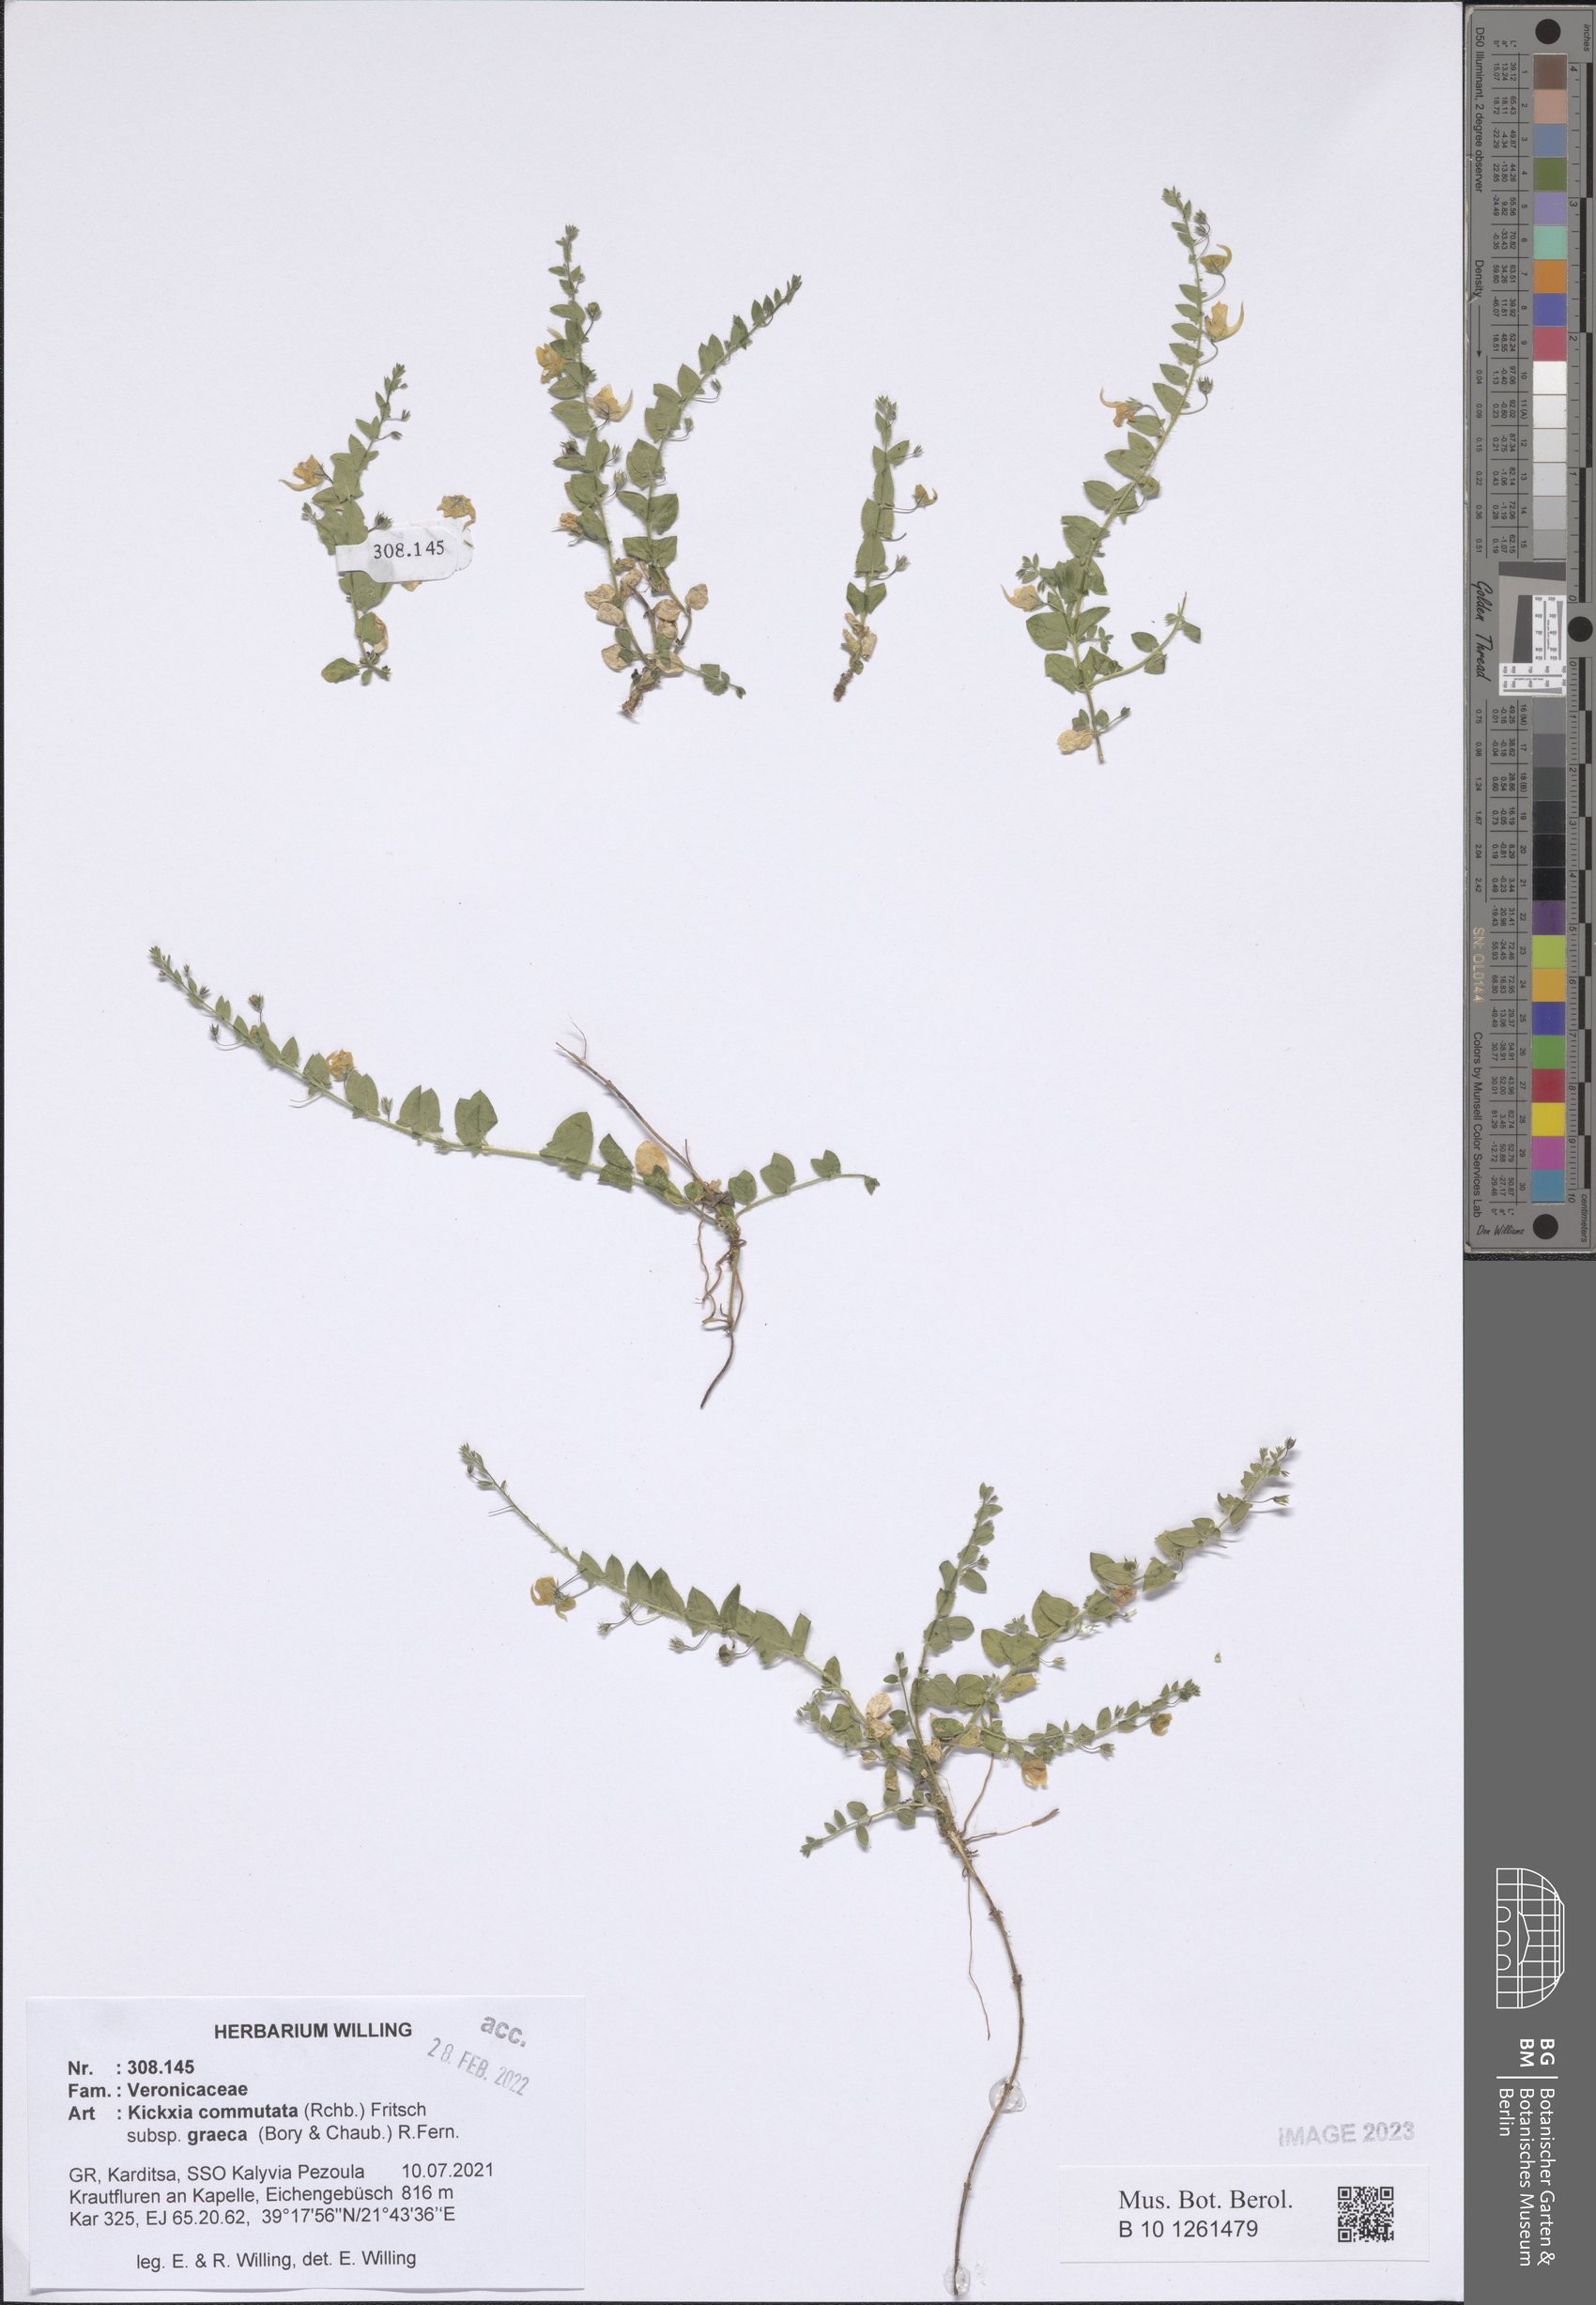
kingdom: Plantae
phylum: Tracheophyta
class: Magnoliopsida
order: Lamiales
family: Plantaginaceae
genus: Kickxia
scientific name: Kickxia commutata
